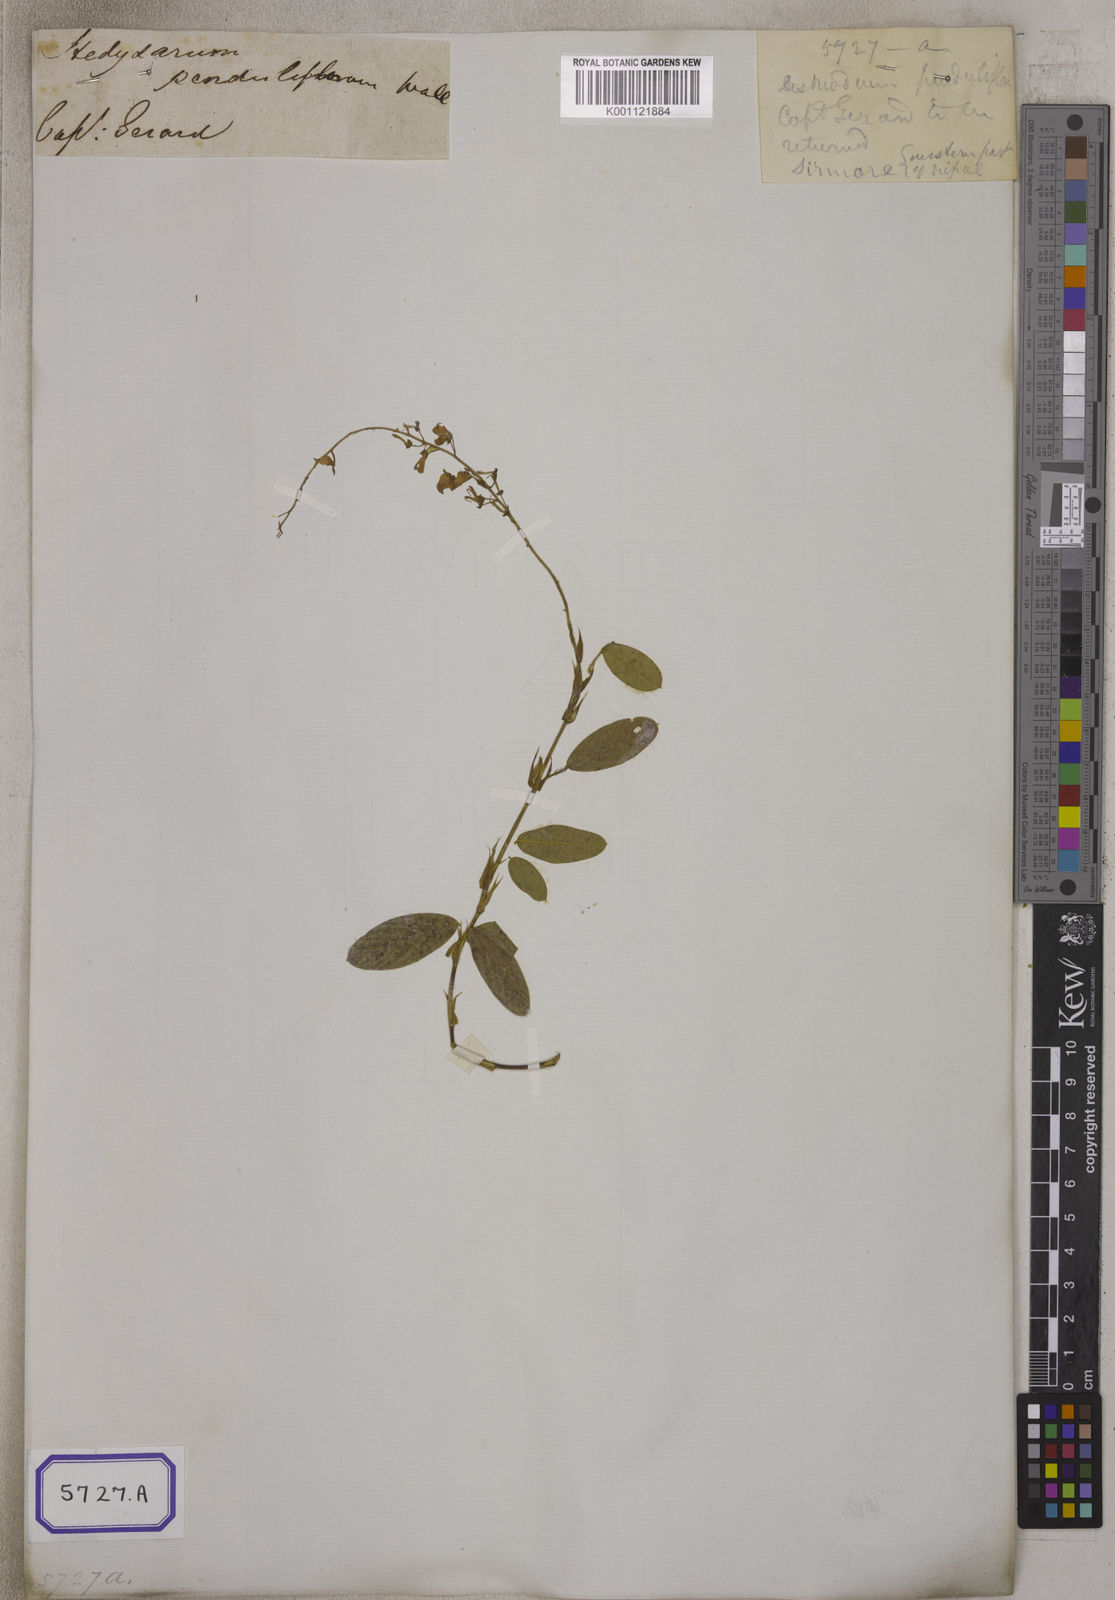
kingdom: Plantae
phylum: Tracheophyta
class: Magnoliopsida
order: Fabales
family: Fabaceae
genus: Tateishia
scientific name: Tateishia concinna
